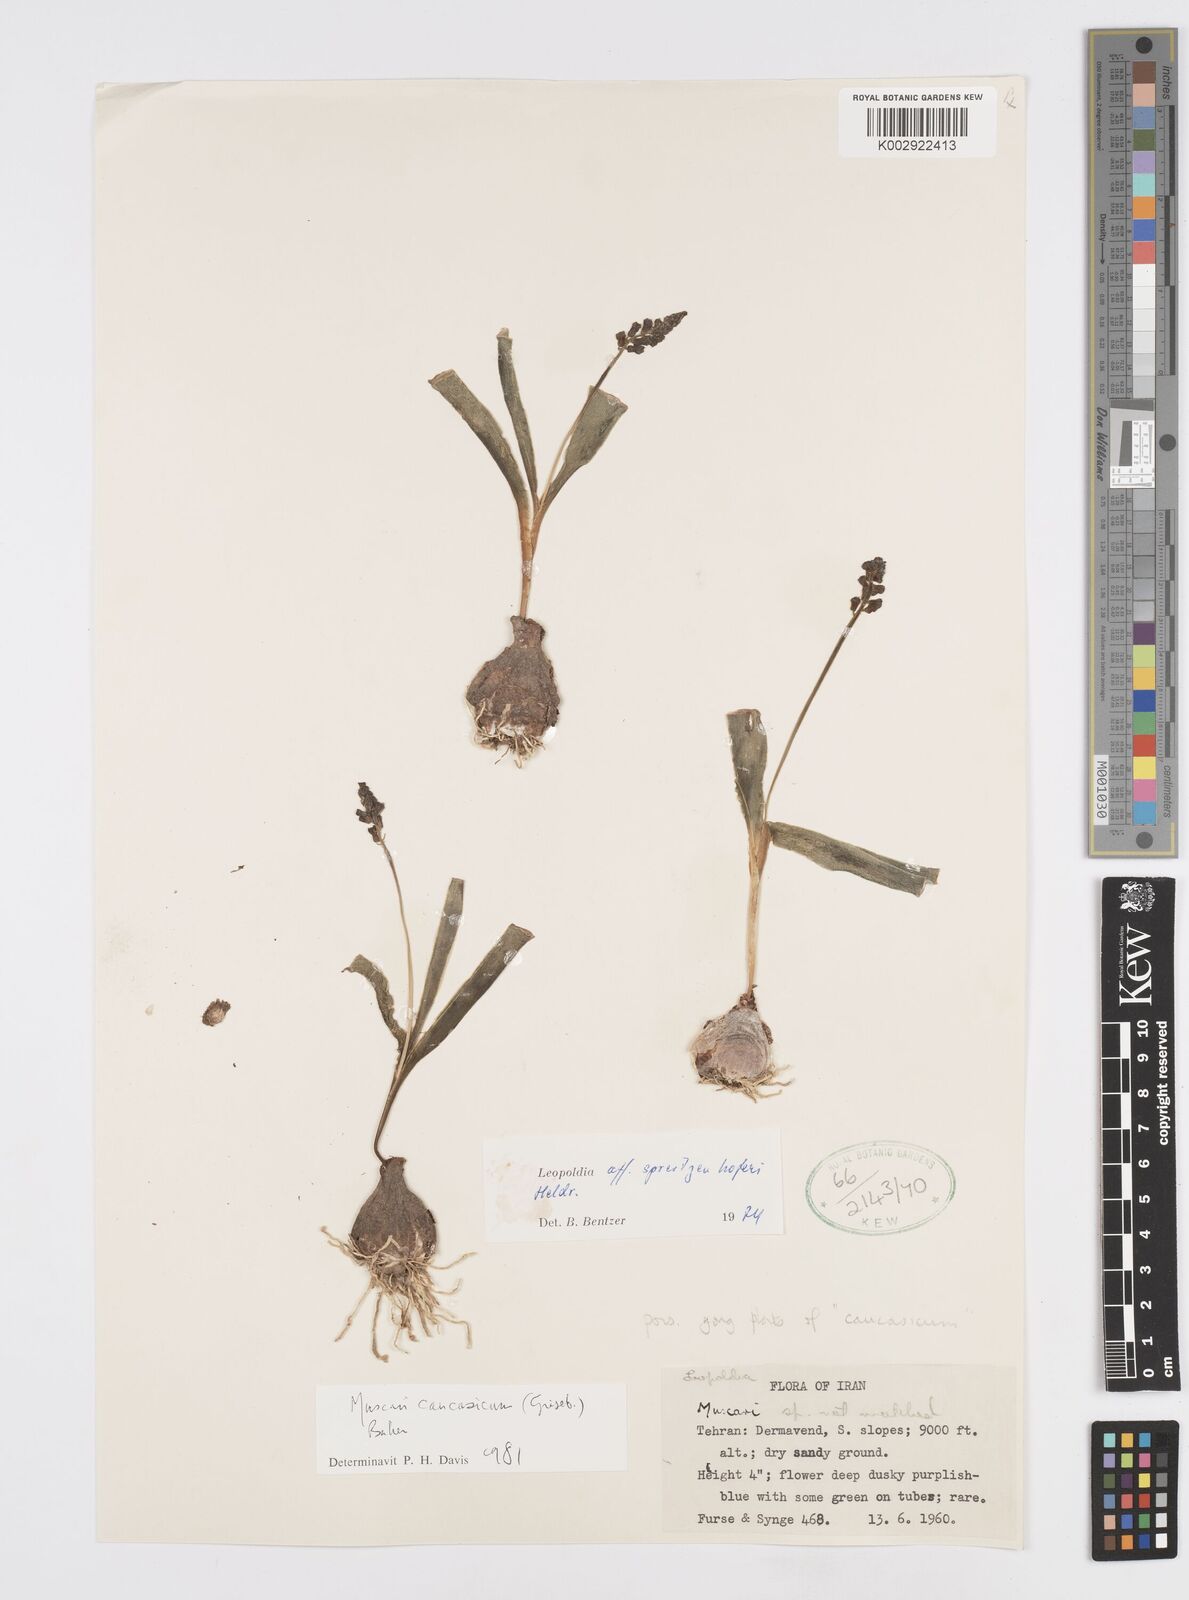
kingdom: Plantae
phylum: Tracheophyta
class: Liliopsida
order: Asparagales
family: Asparagaceae
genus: Muscari
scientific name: Muscari spreitzenhoferi
